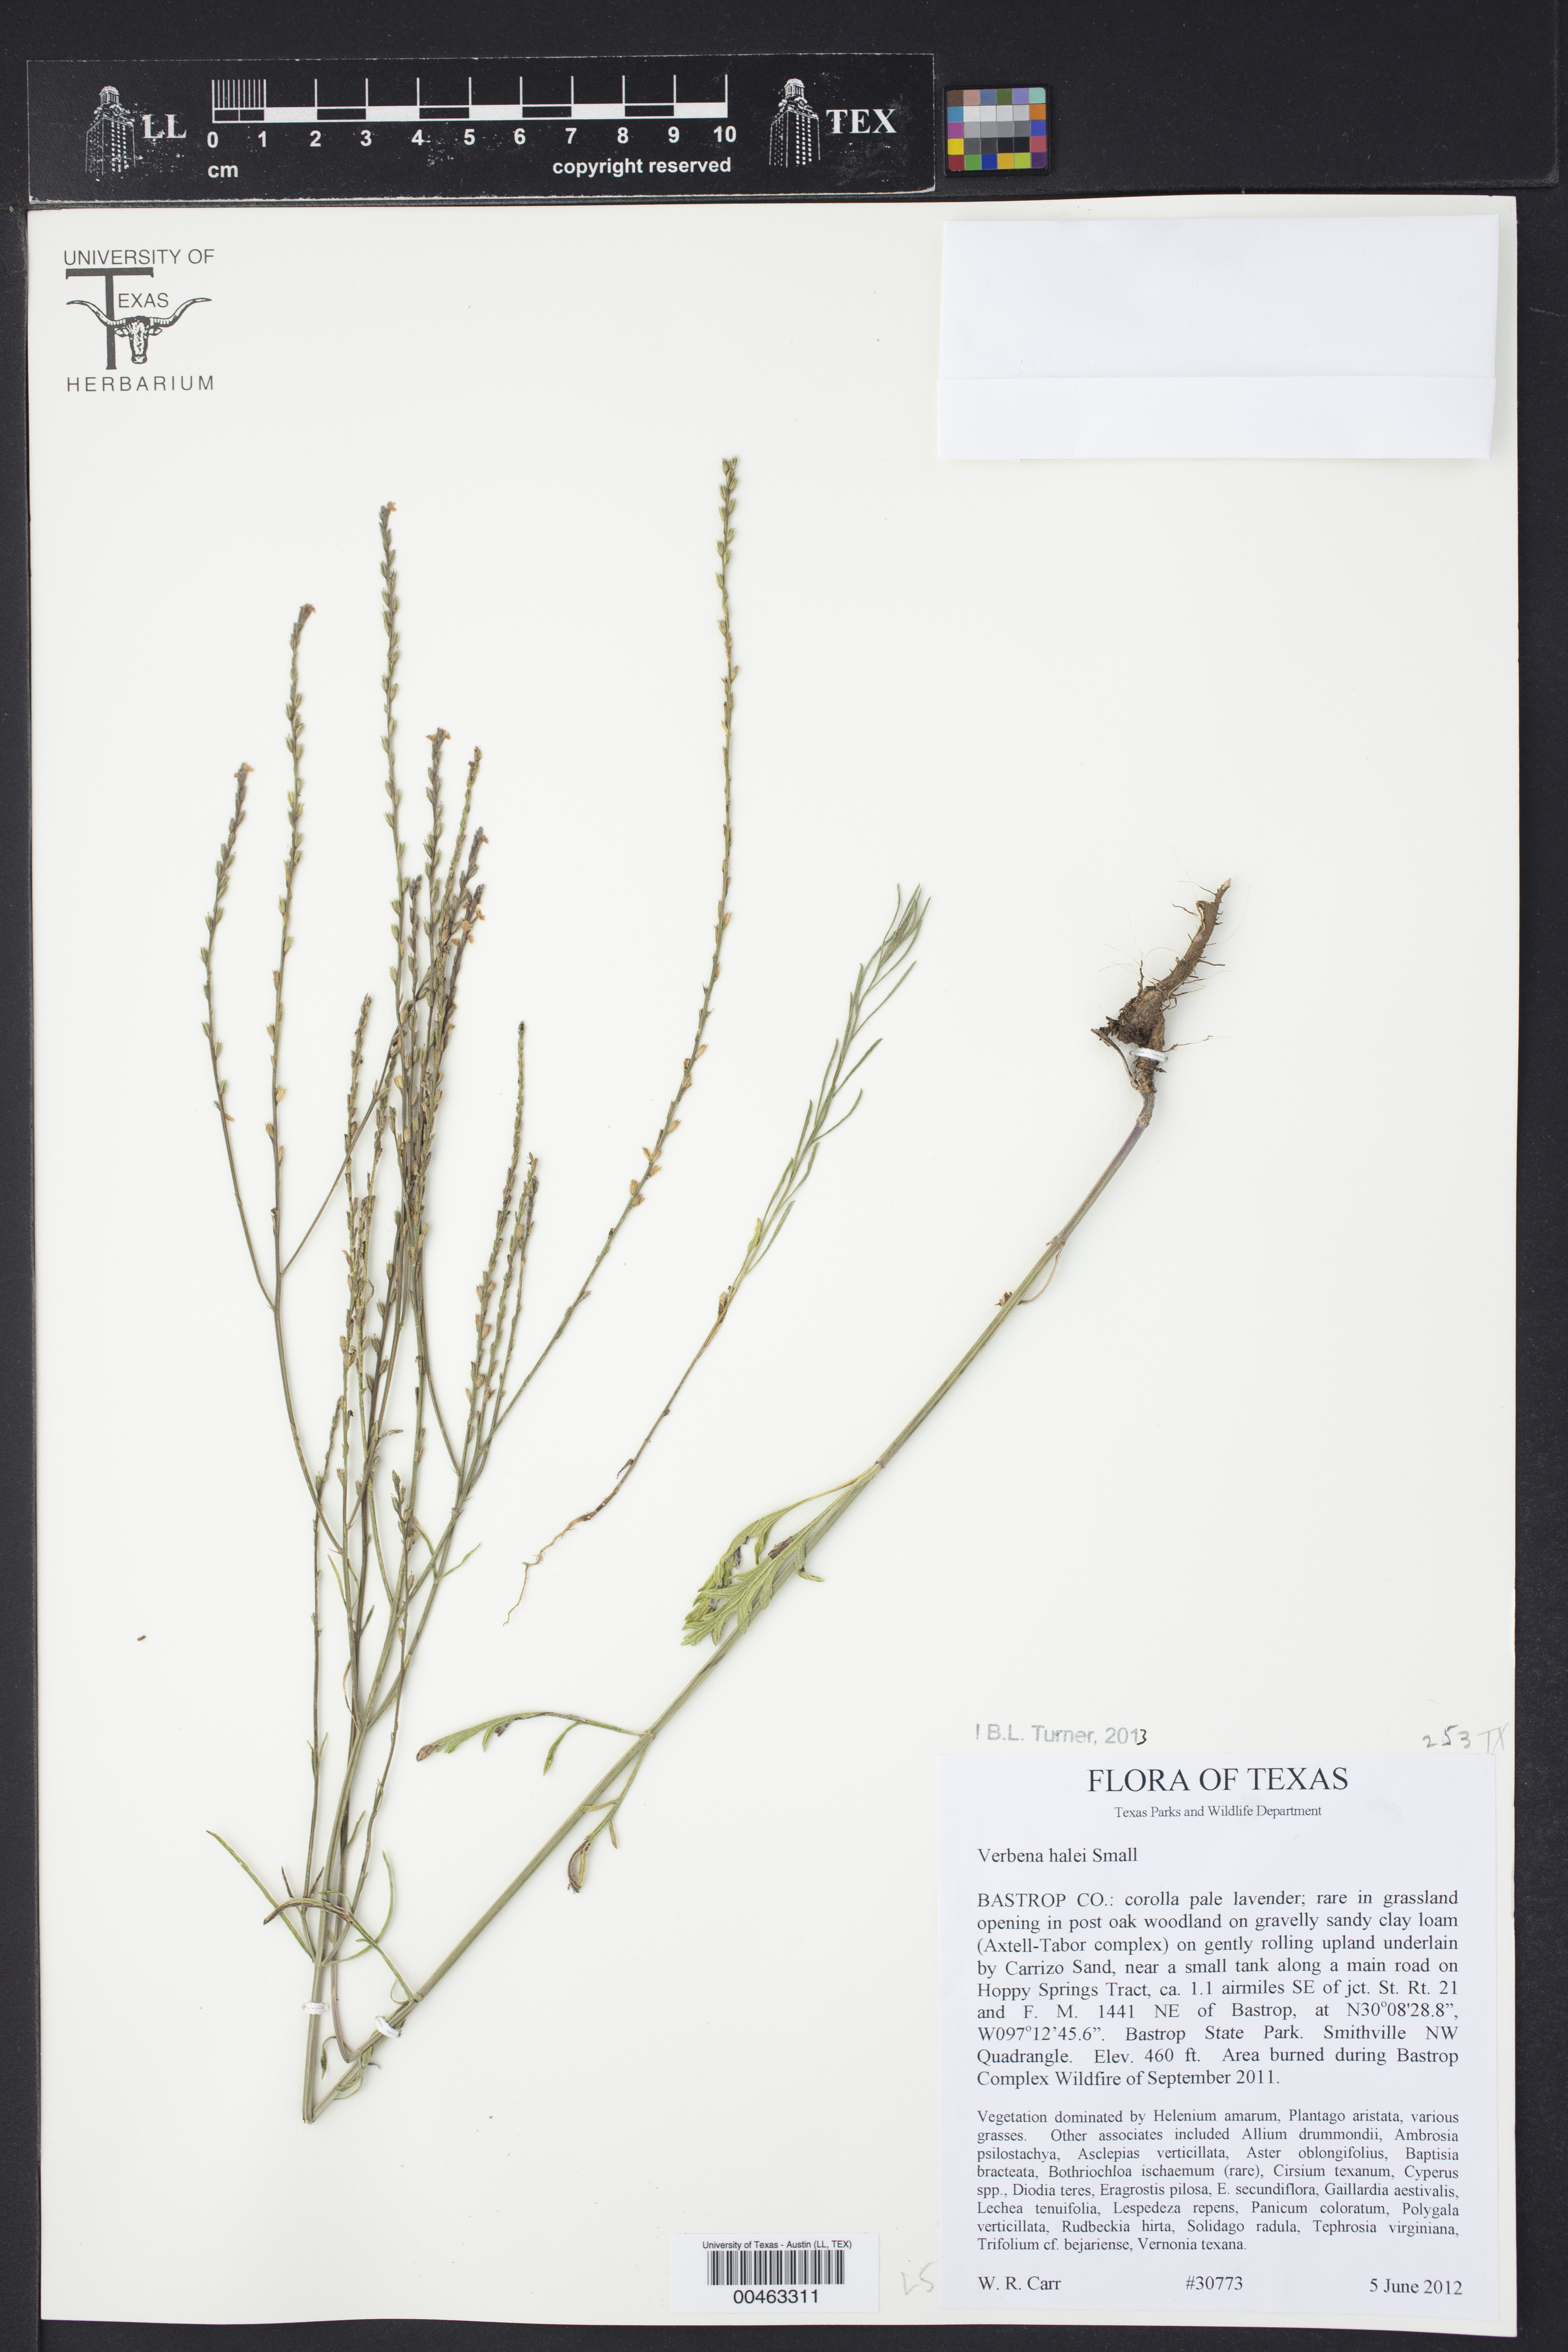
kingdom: Plantae
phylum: Tracheophyta
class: Magnoliopsida
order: Lamiales
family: Verbenaceae
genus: Verbena
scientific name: Verbena halei
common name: Texas vervain
